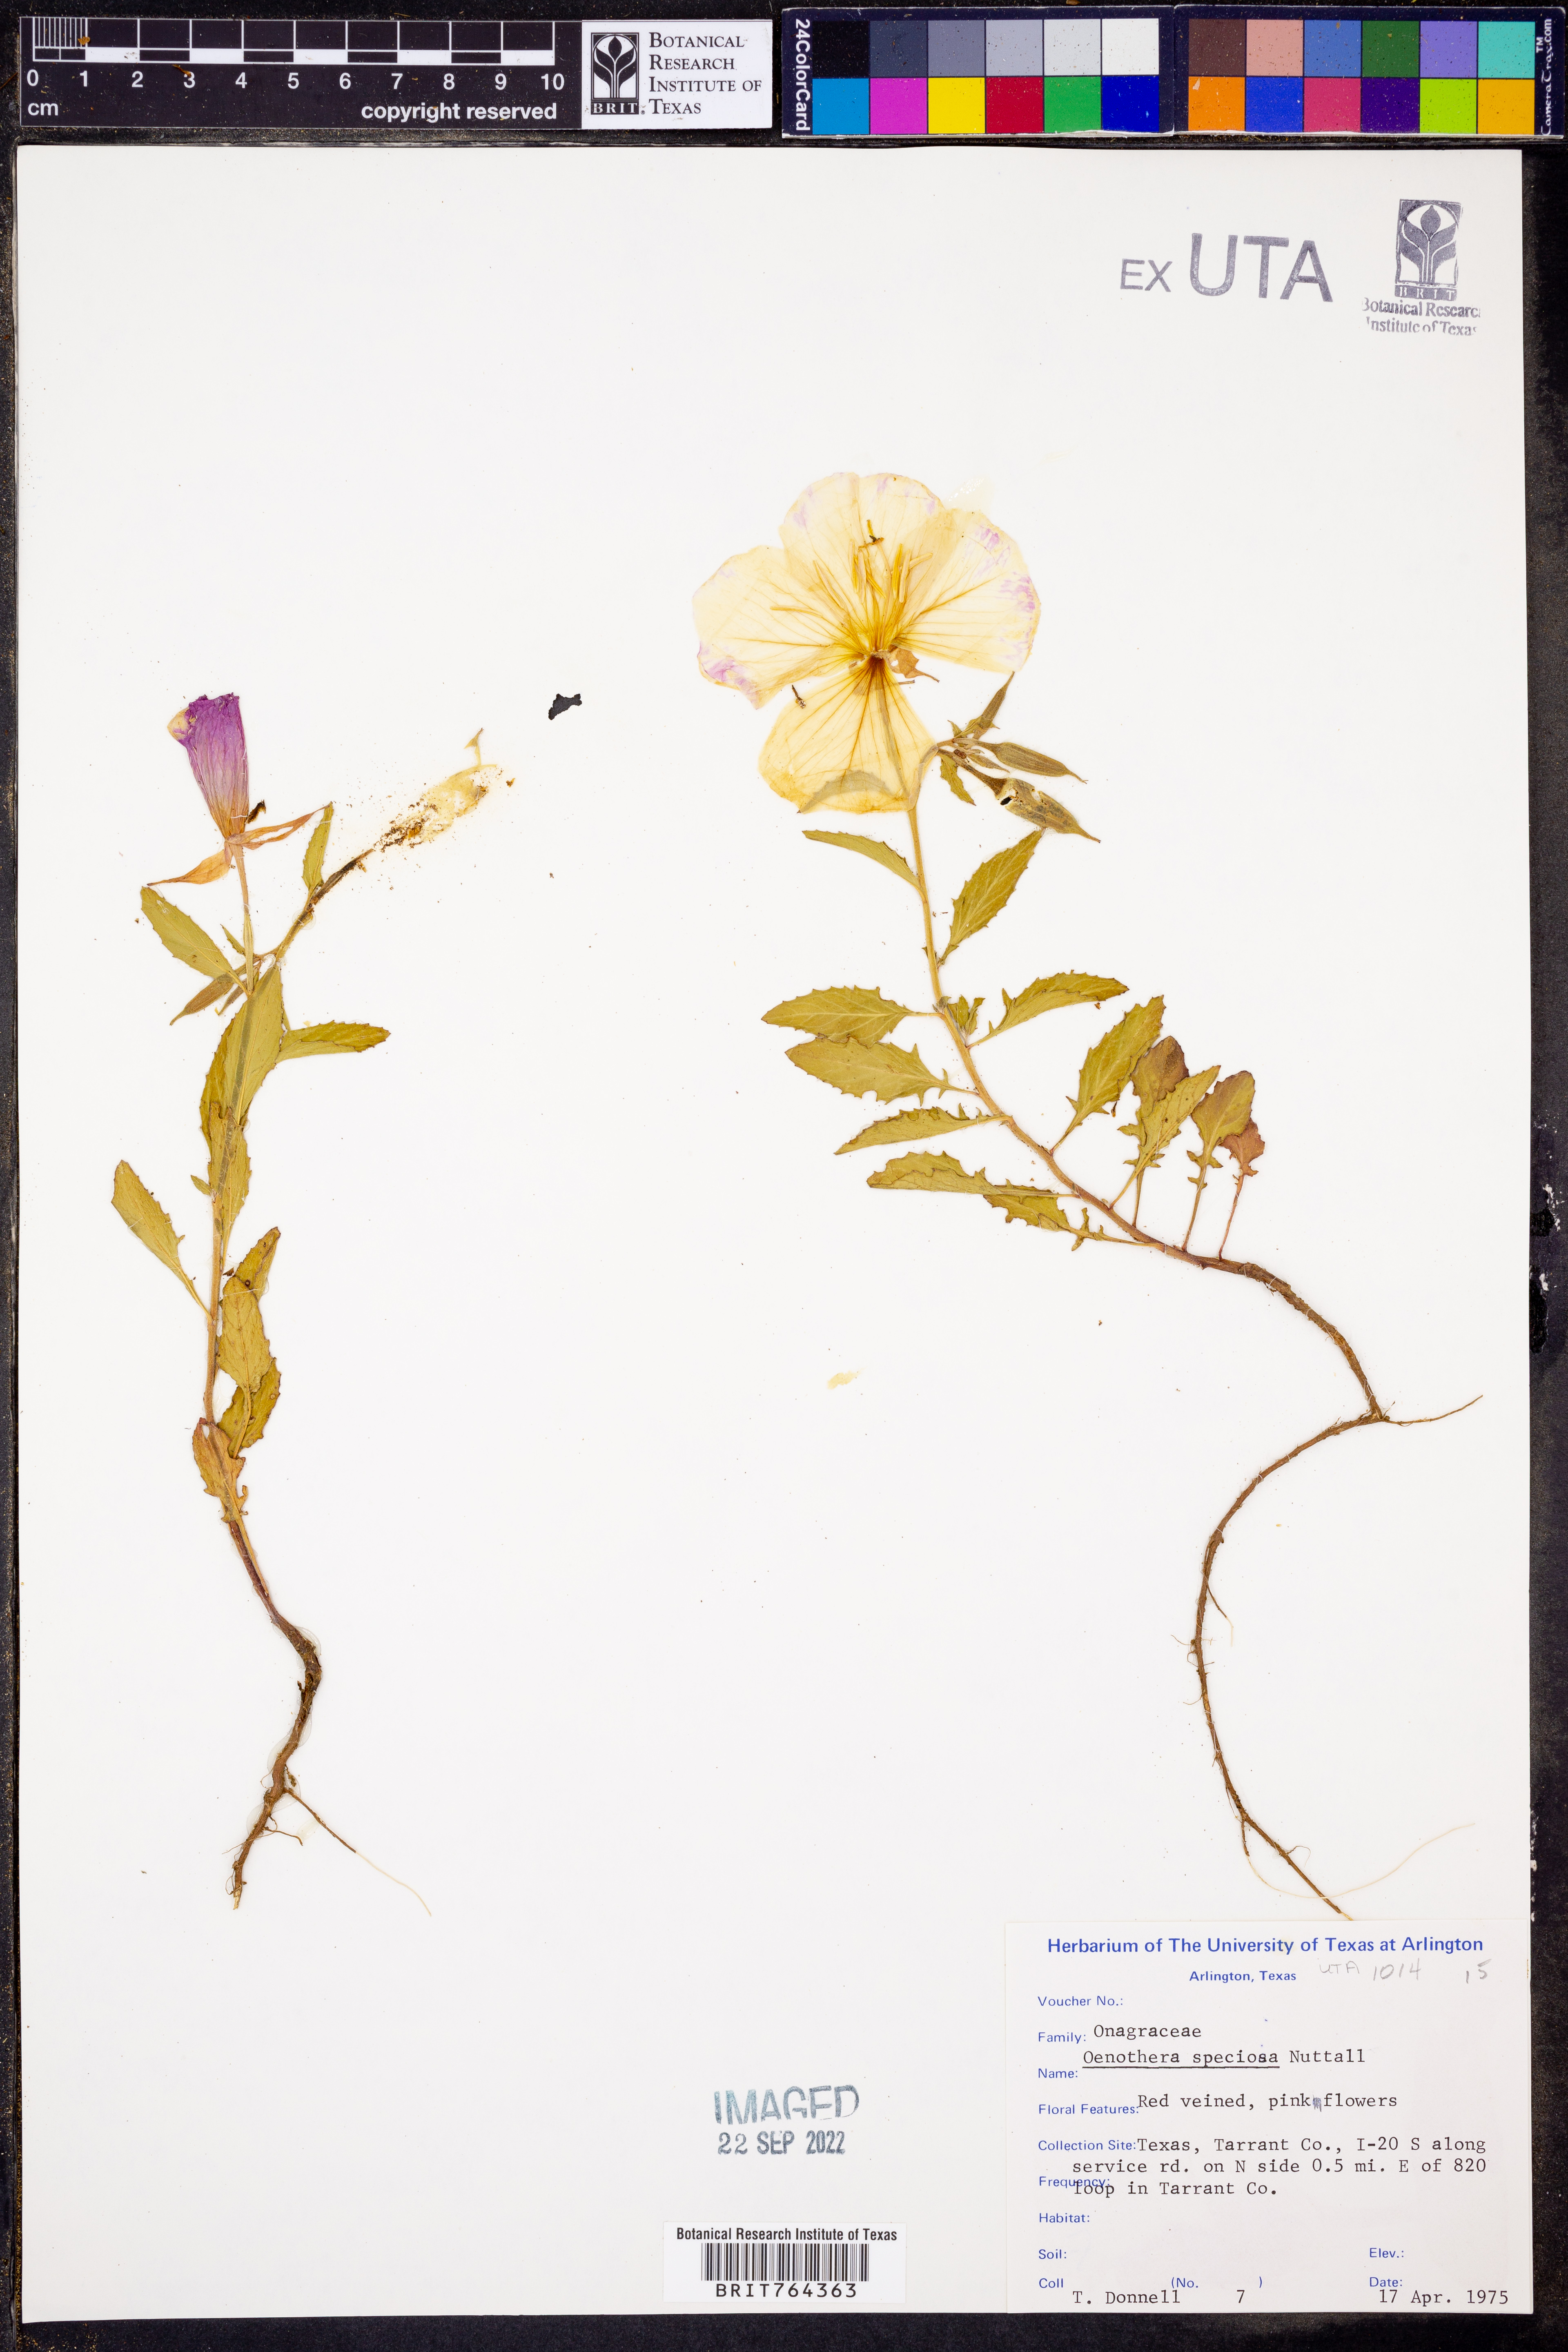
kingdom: Plantae
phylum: Tracheophyta
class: Magnoliopsida
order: Myrtales
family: Onagraceae
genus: Oenothera
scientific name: Oenothera speciosa
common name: White evening-primrose
